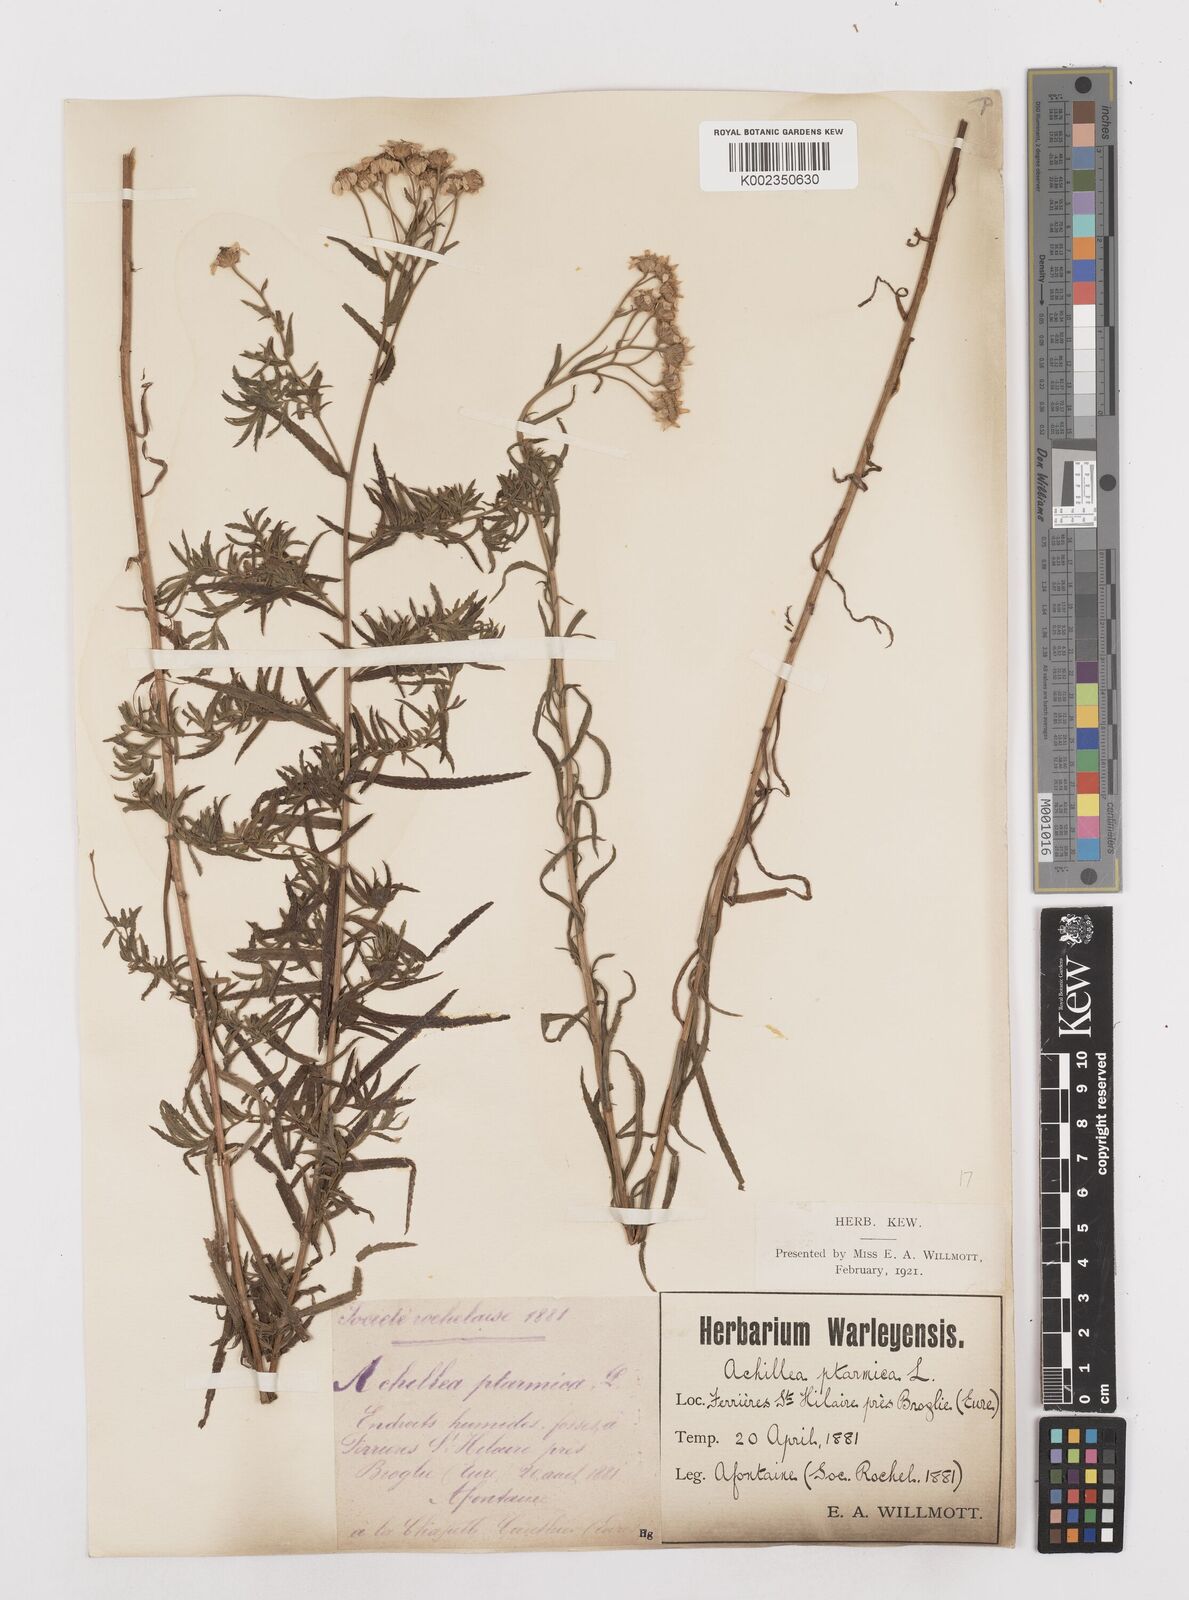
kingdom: Plantae
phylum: Tracheophyta
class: Magnoliopsida
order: Asterales
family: Asteraceae
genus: Achillea
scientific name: Achillea ptarmica
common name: Sneezeweed
